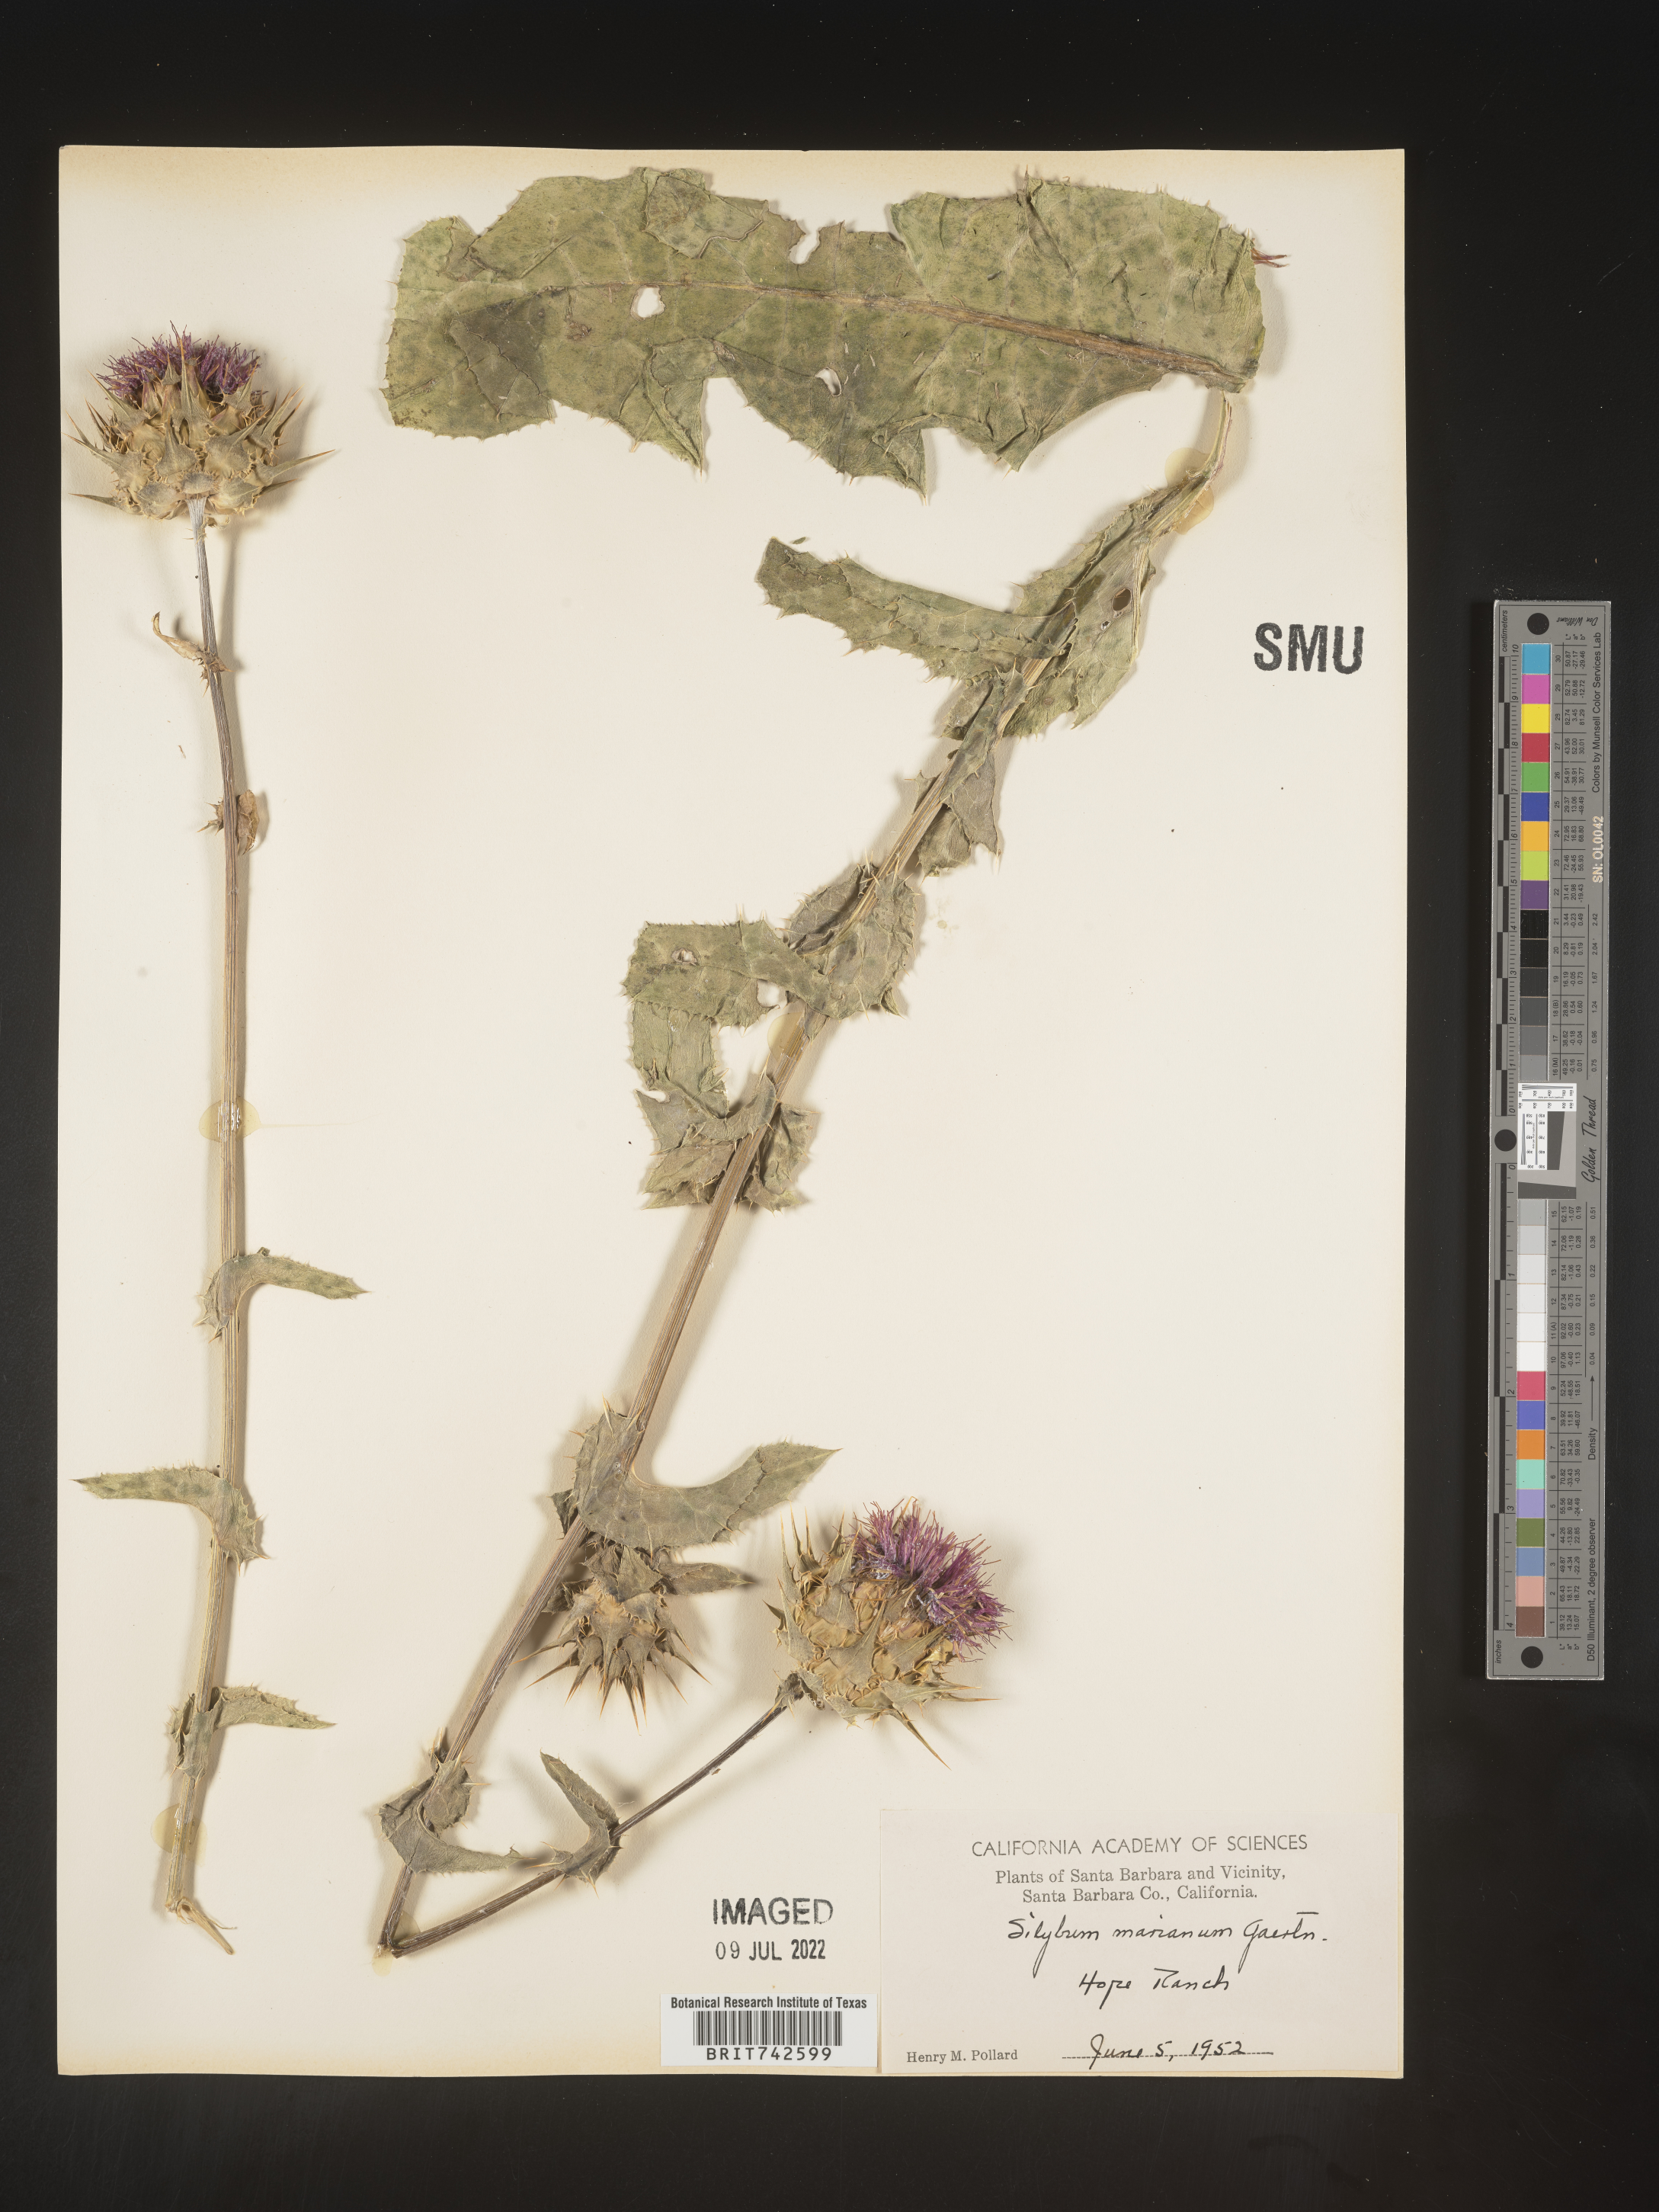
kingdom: Plantae
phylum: Tracheophyta
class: Magnoliopsida
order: Asterales
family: Asteraceae
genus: Silybum
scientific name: Silybum marianum
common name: Milk thistle
